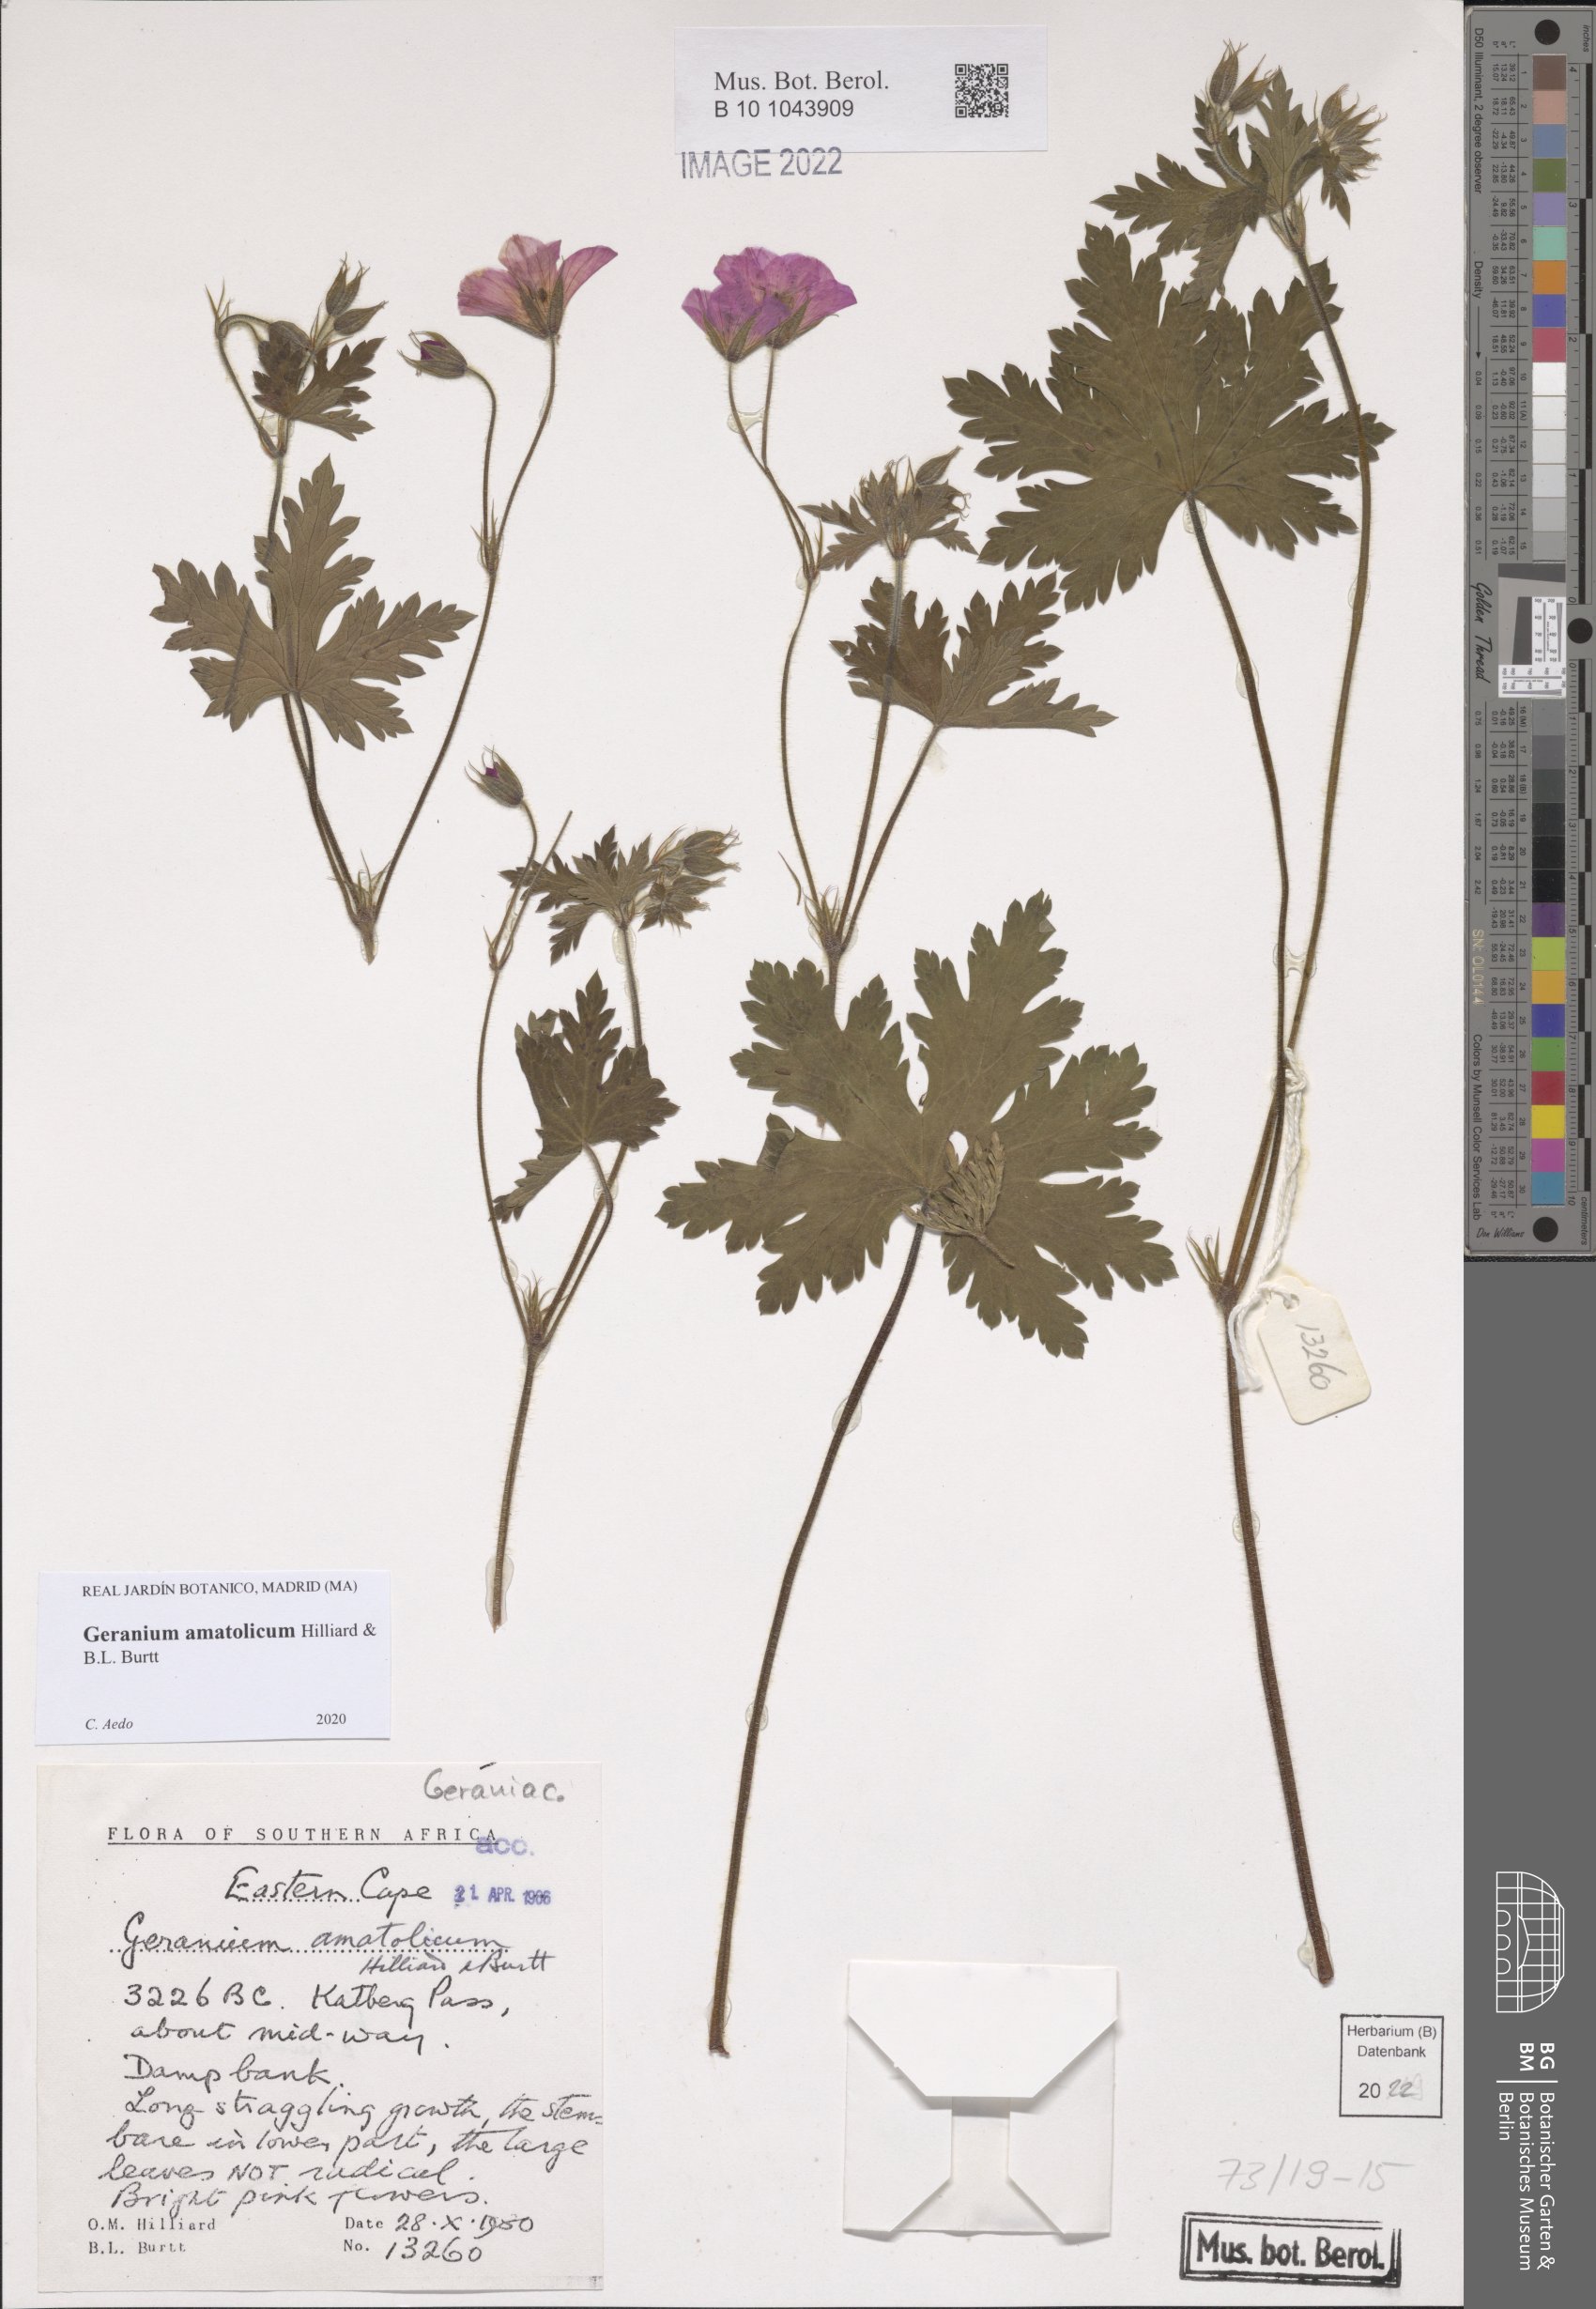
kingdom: Plantae
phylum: Tracheophyta
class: Magnoliopsida
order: Geraniales
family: Geraniaceae
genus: Geranium
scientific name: Geranium amatolicum
